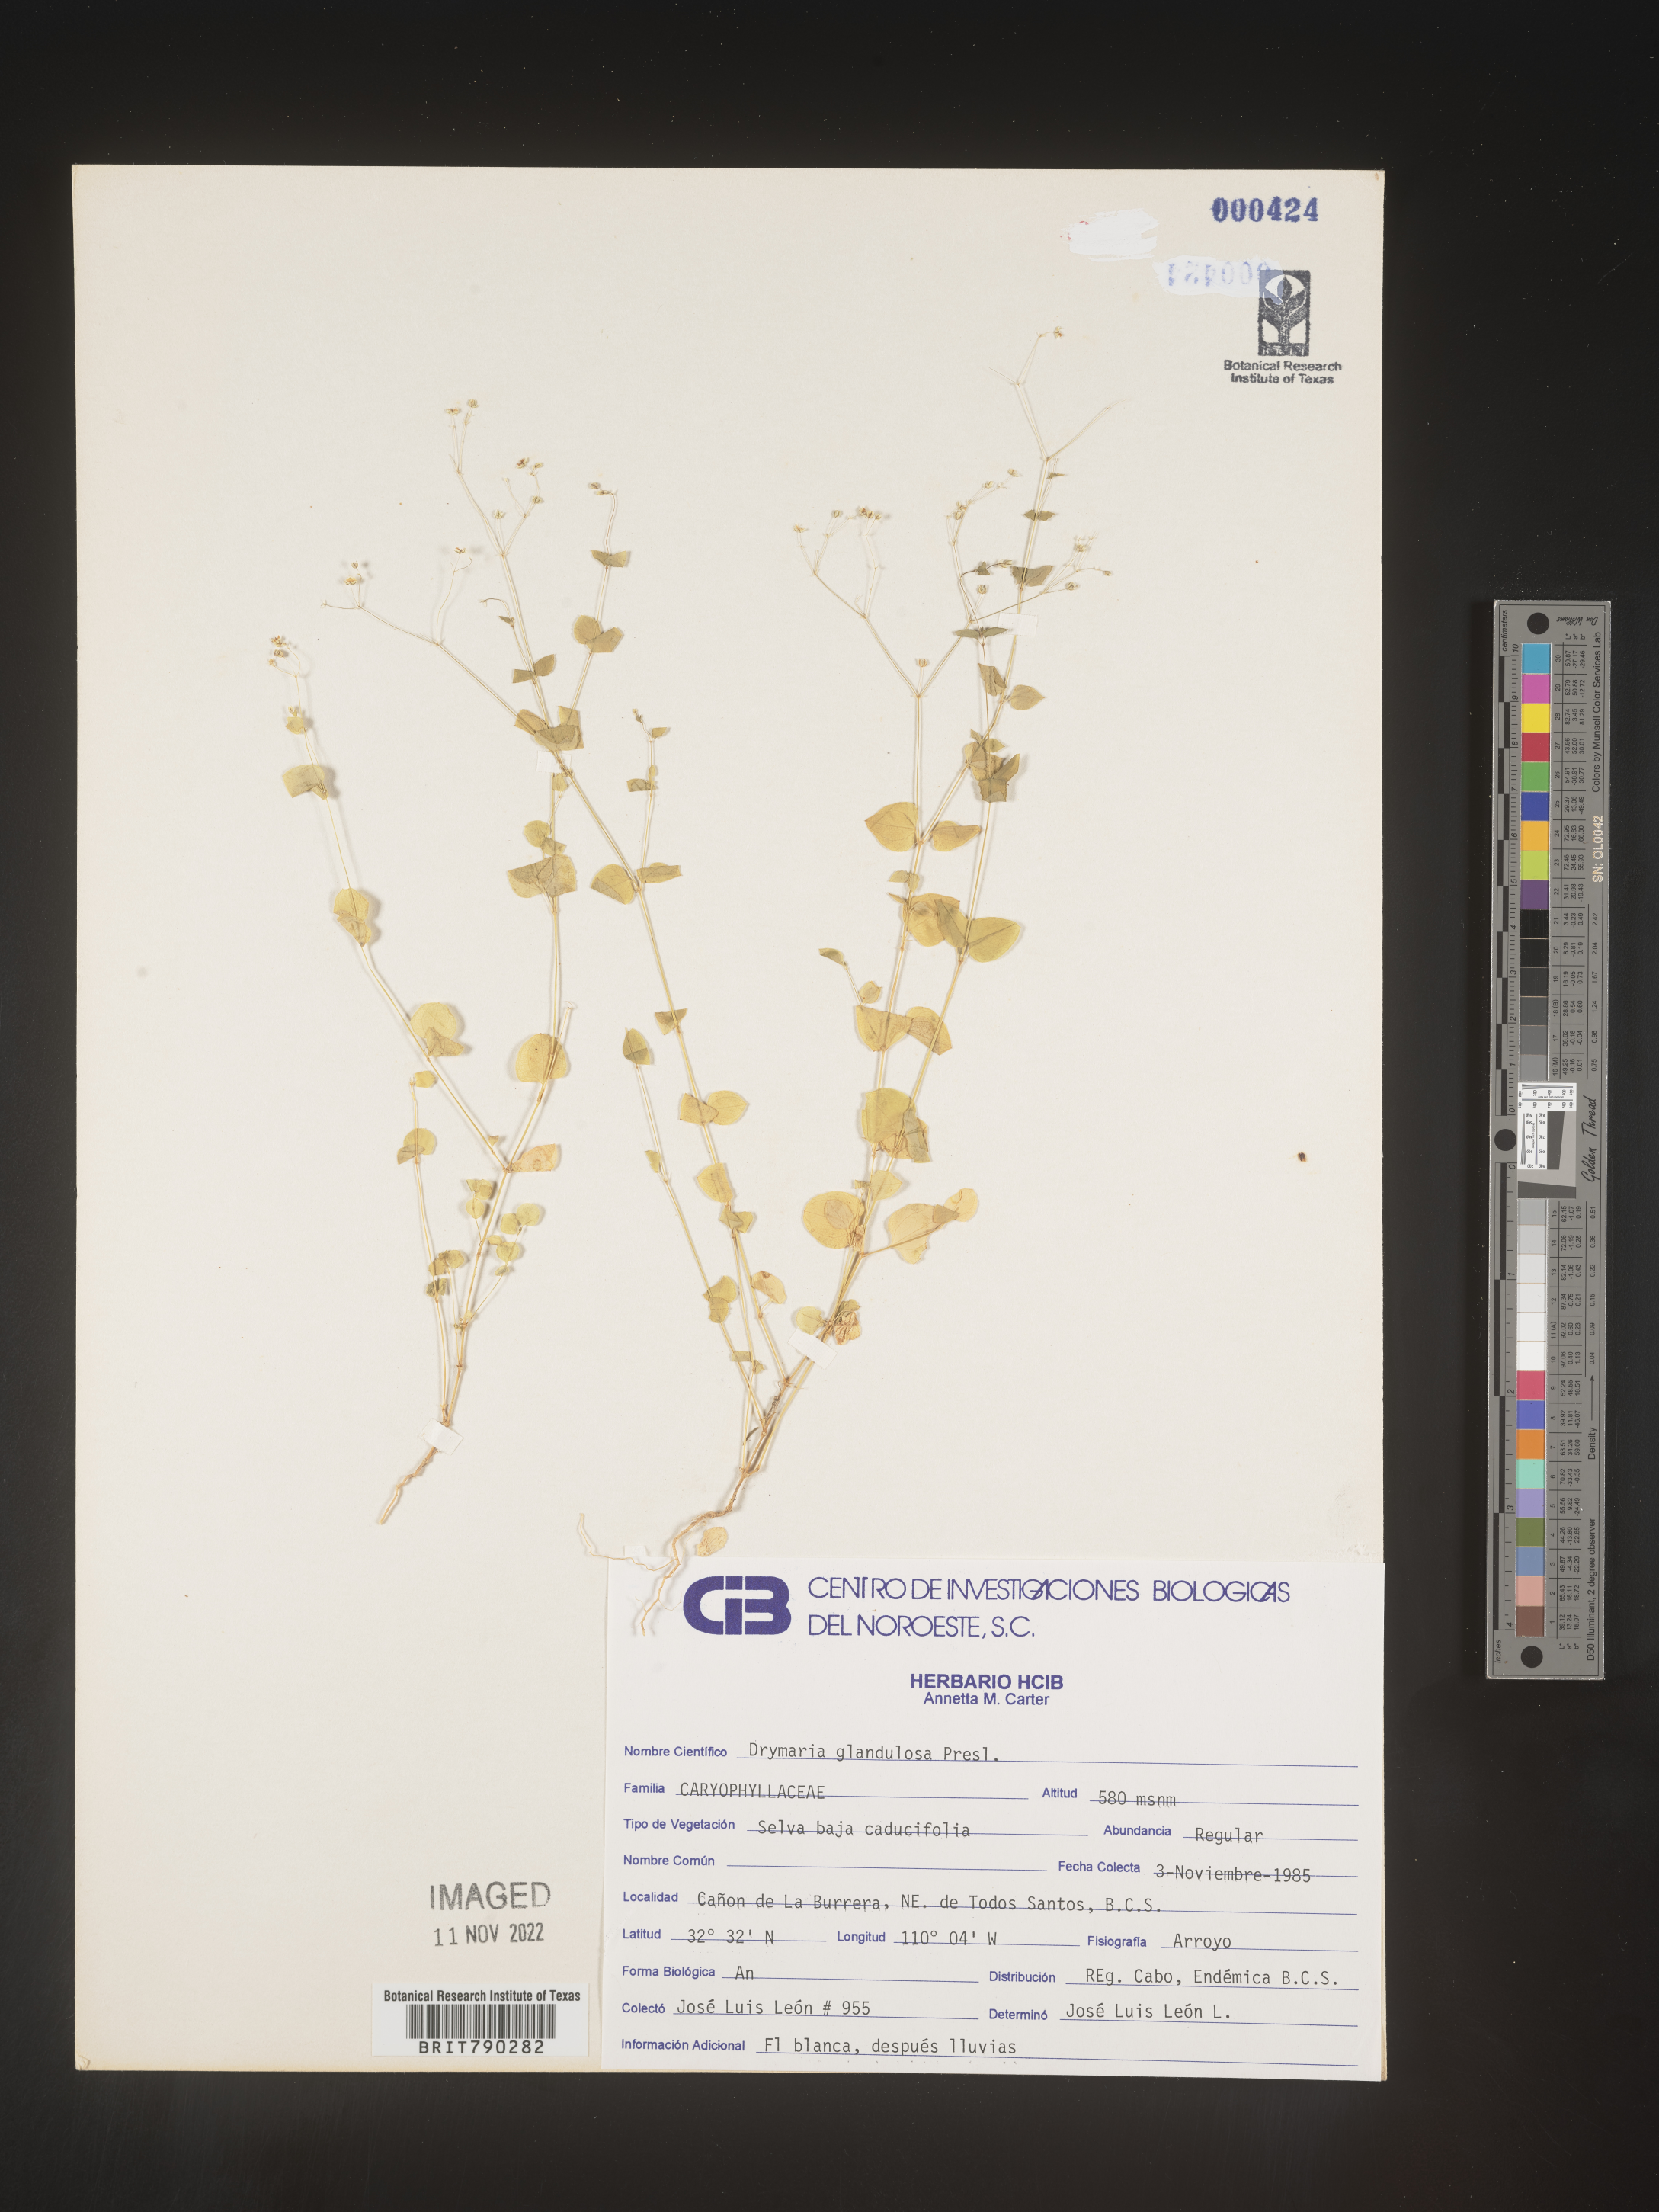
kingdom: Plantae
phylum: Tracheophyta
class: Magnoliopsida
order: Caryophyllales
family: Caryophyllaceae
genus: Drymaria
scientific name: Drymaria
